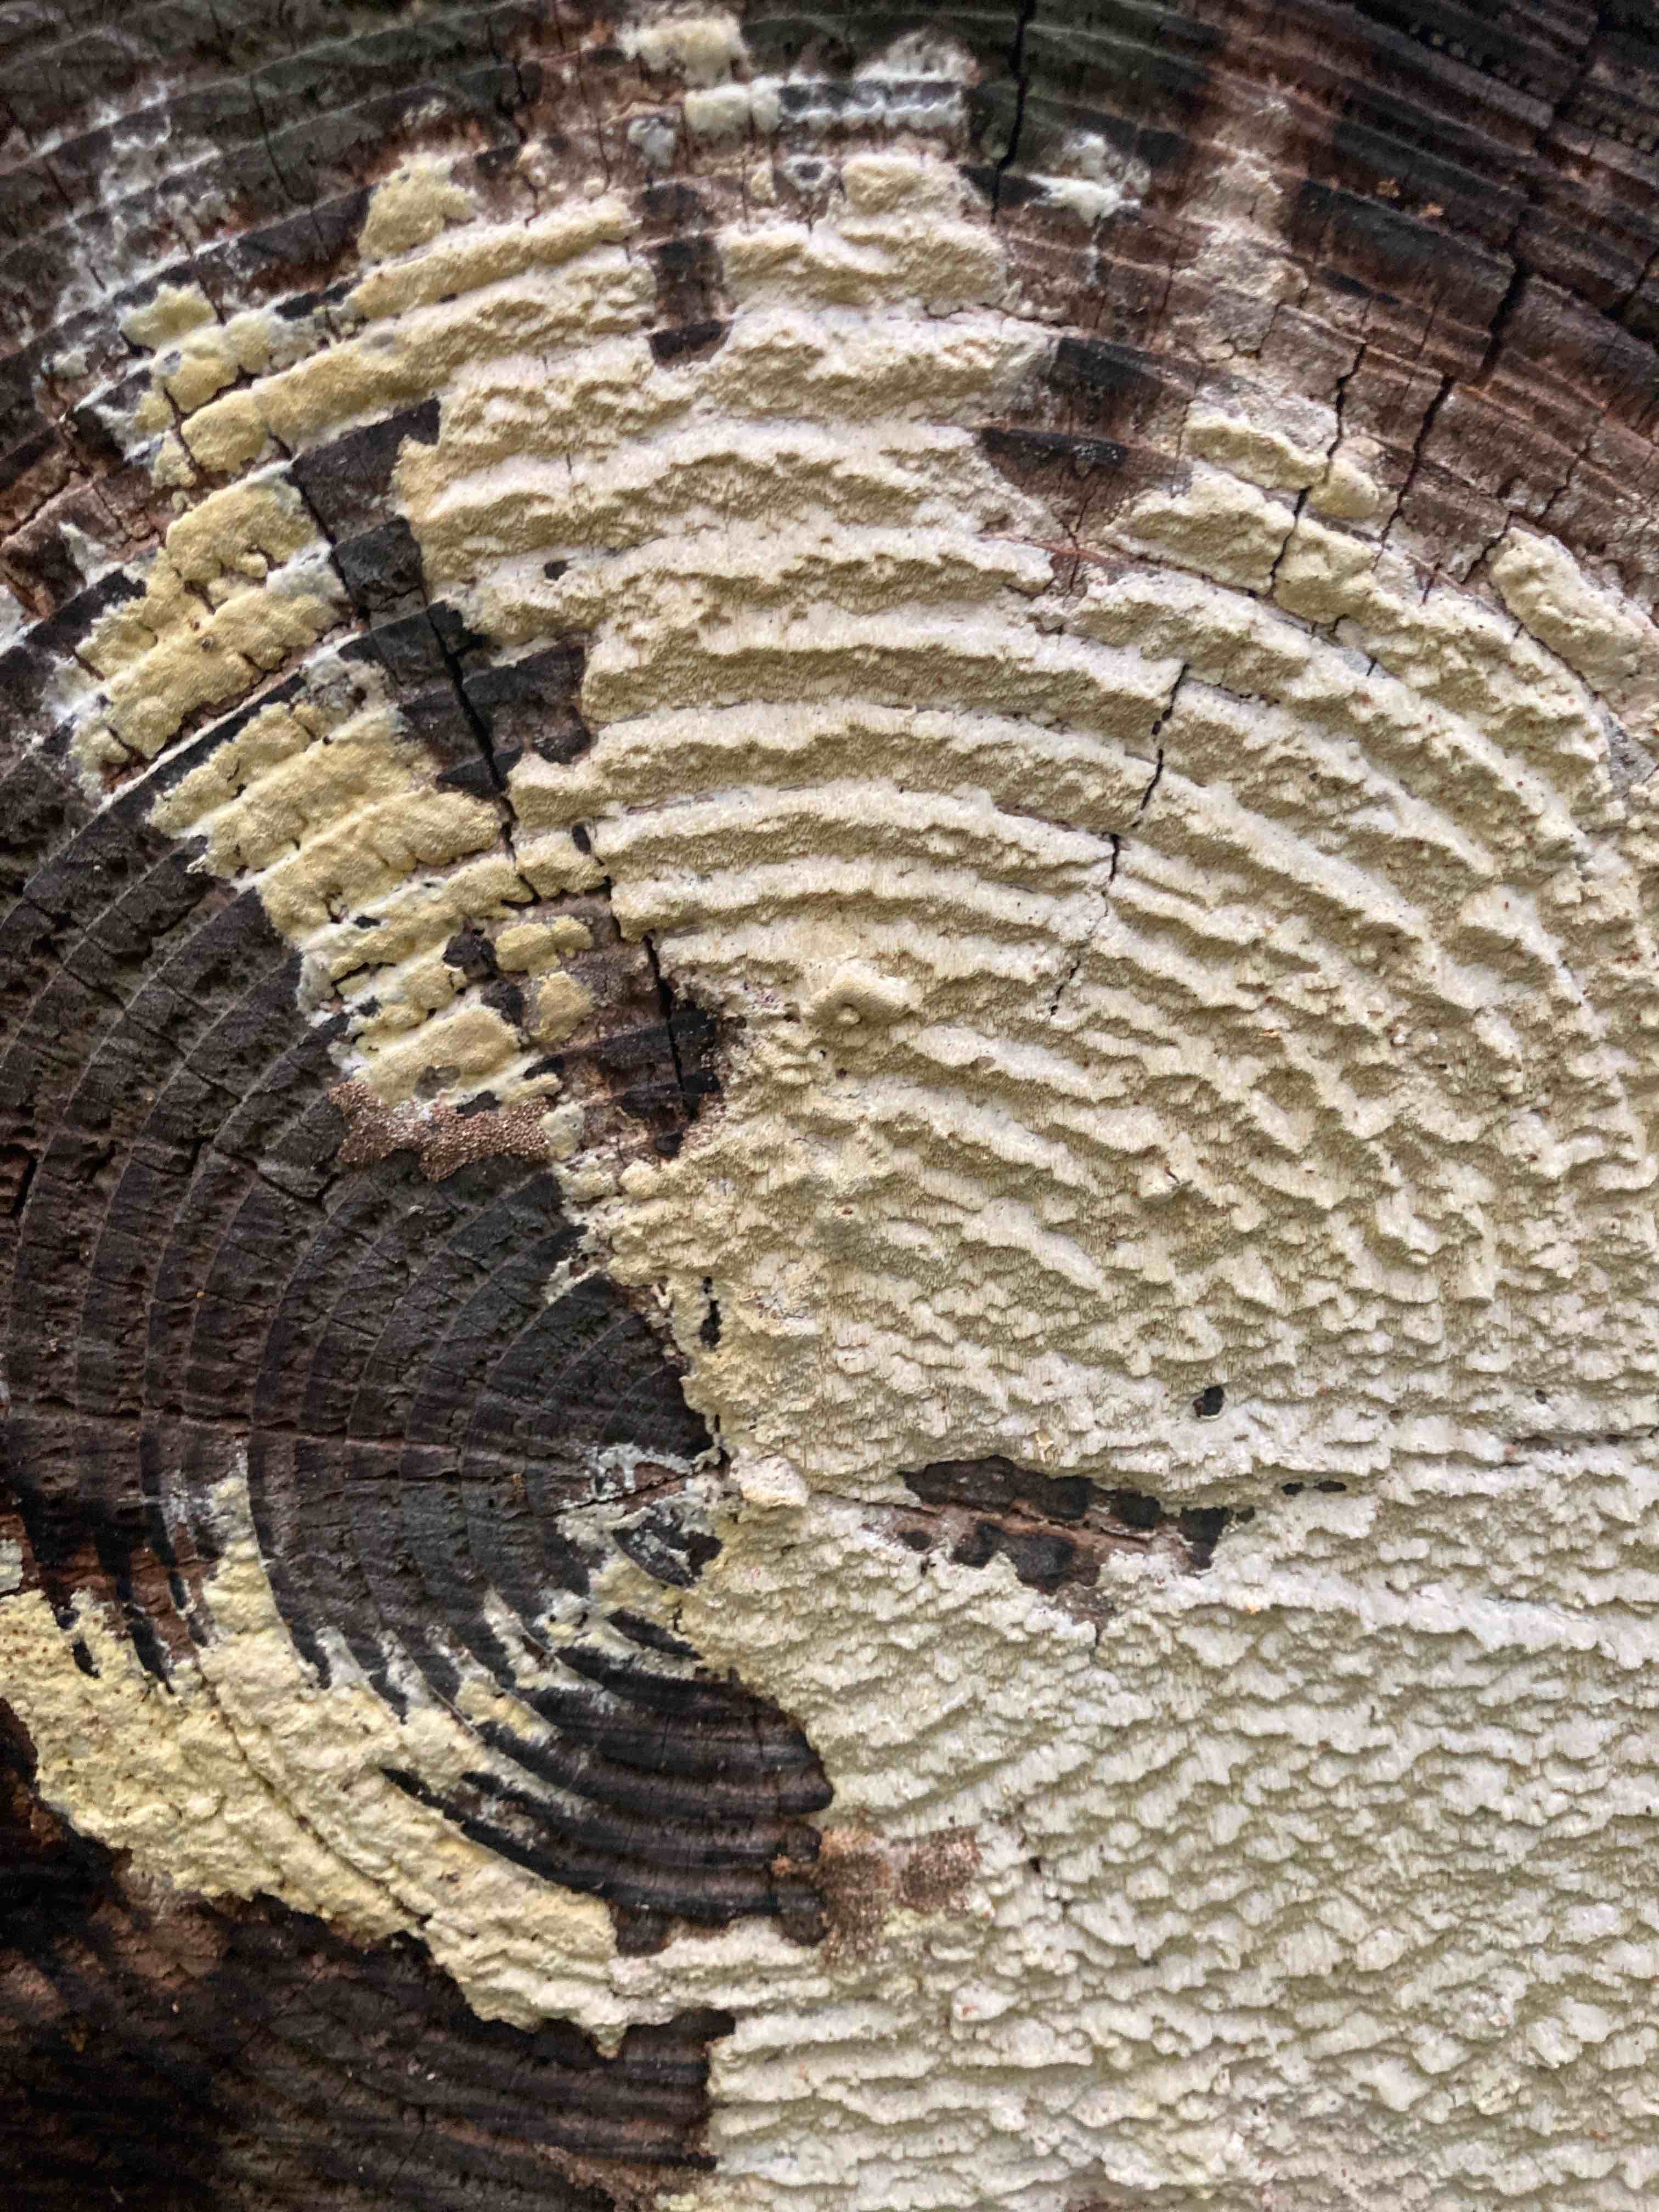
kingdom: Fungi
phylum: Basidiomycota
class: Agaricomycetes
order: Polyporales
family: Fomitopsidaceae
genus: Daedalea
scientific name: Daedalea xantha
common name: gul sejporesvamp
